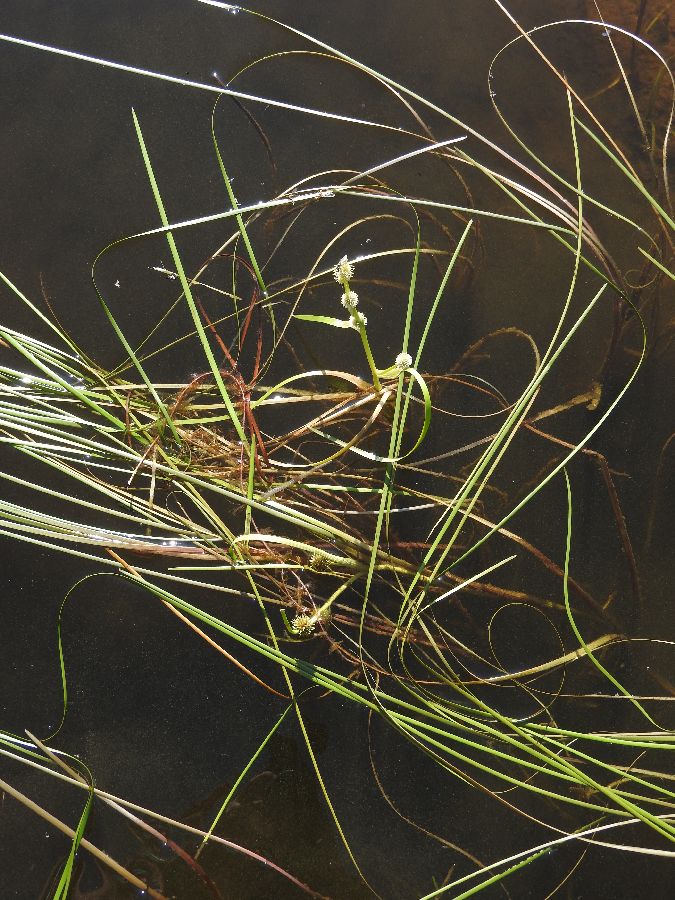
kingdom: Plantae
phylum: Tracheophyta
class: Liliopsida
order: Poales
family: Typhaceae
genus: Sparganium
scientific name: Sparganium gramineum
